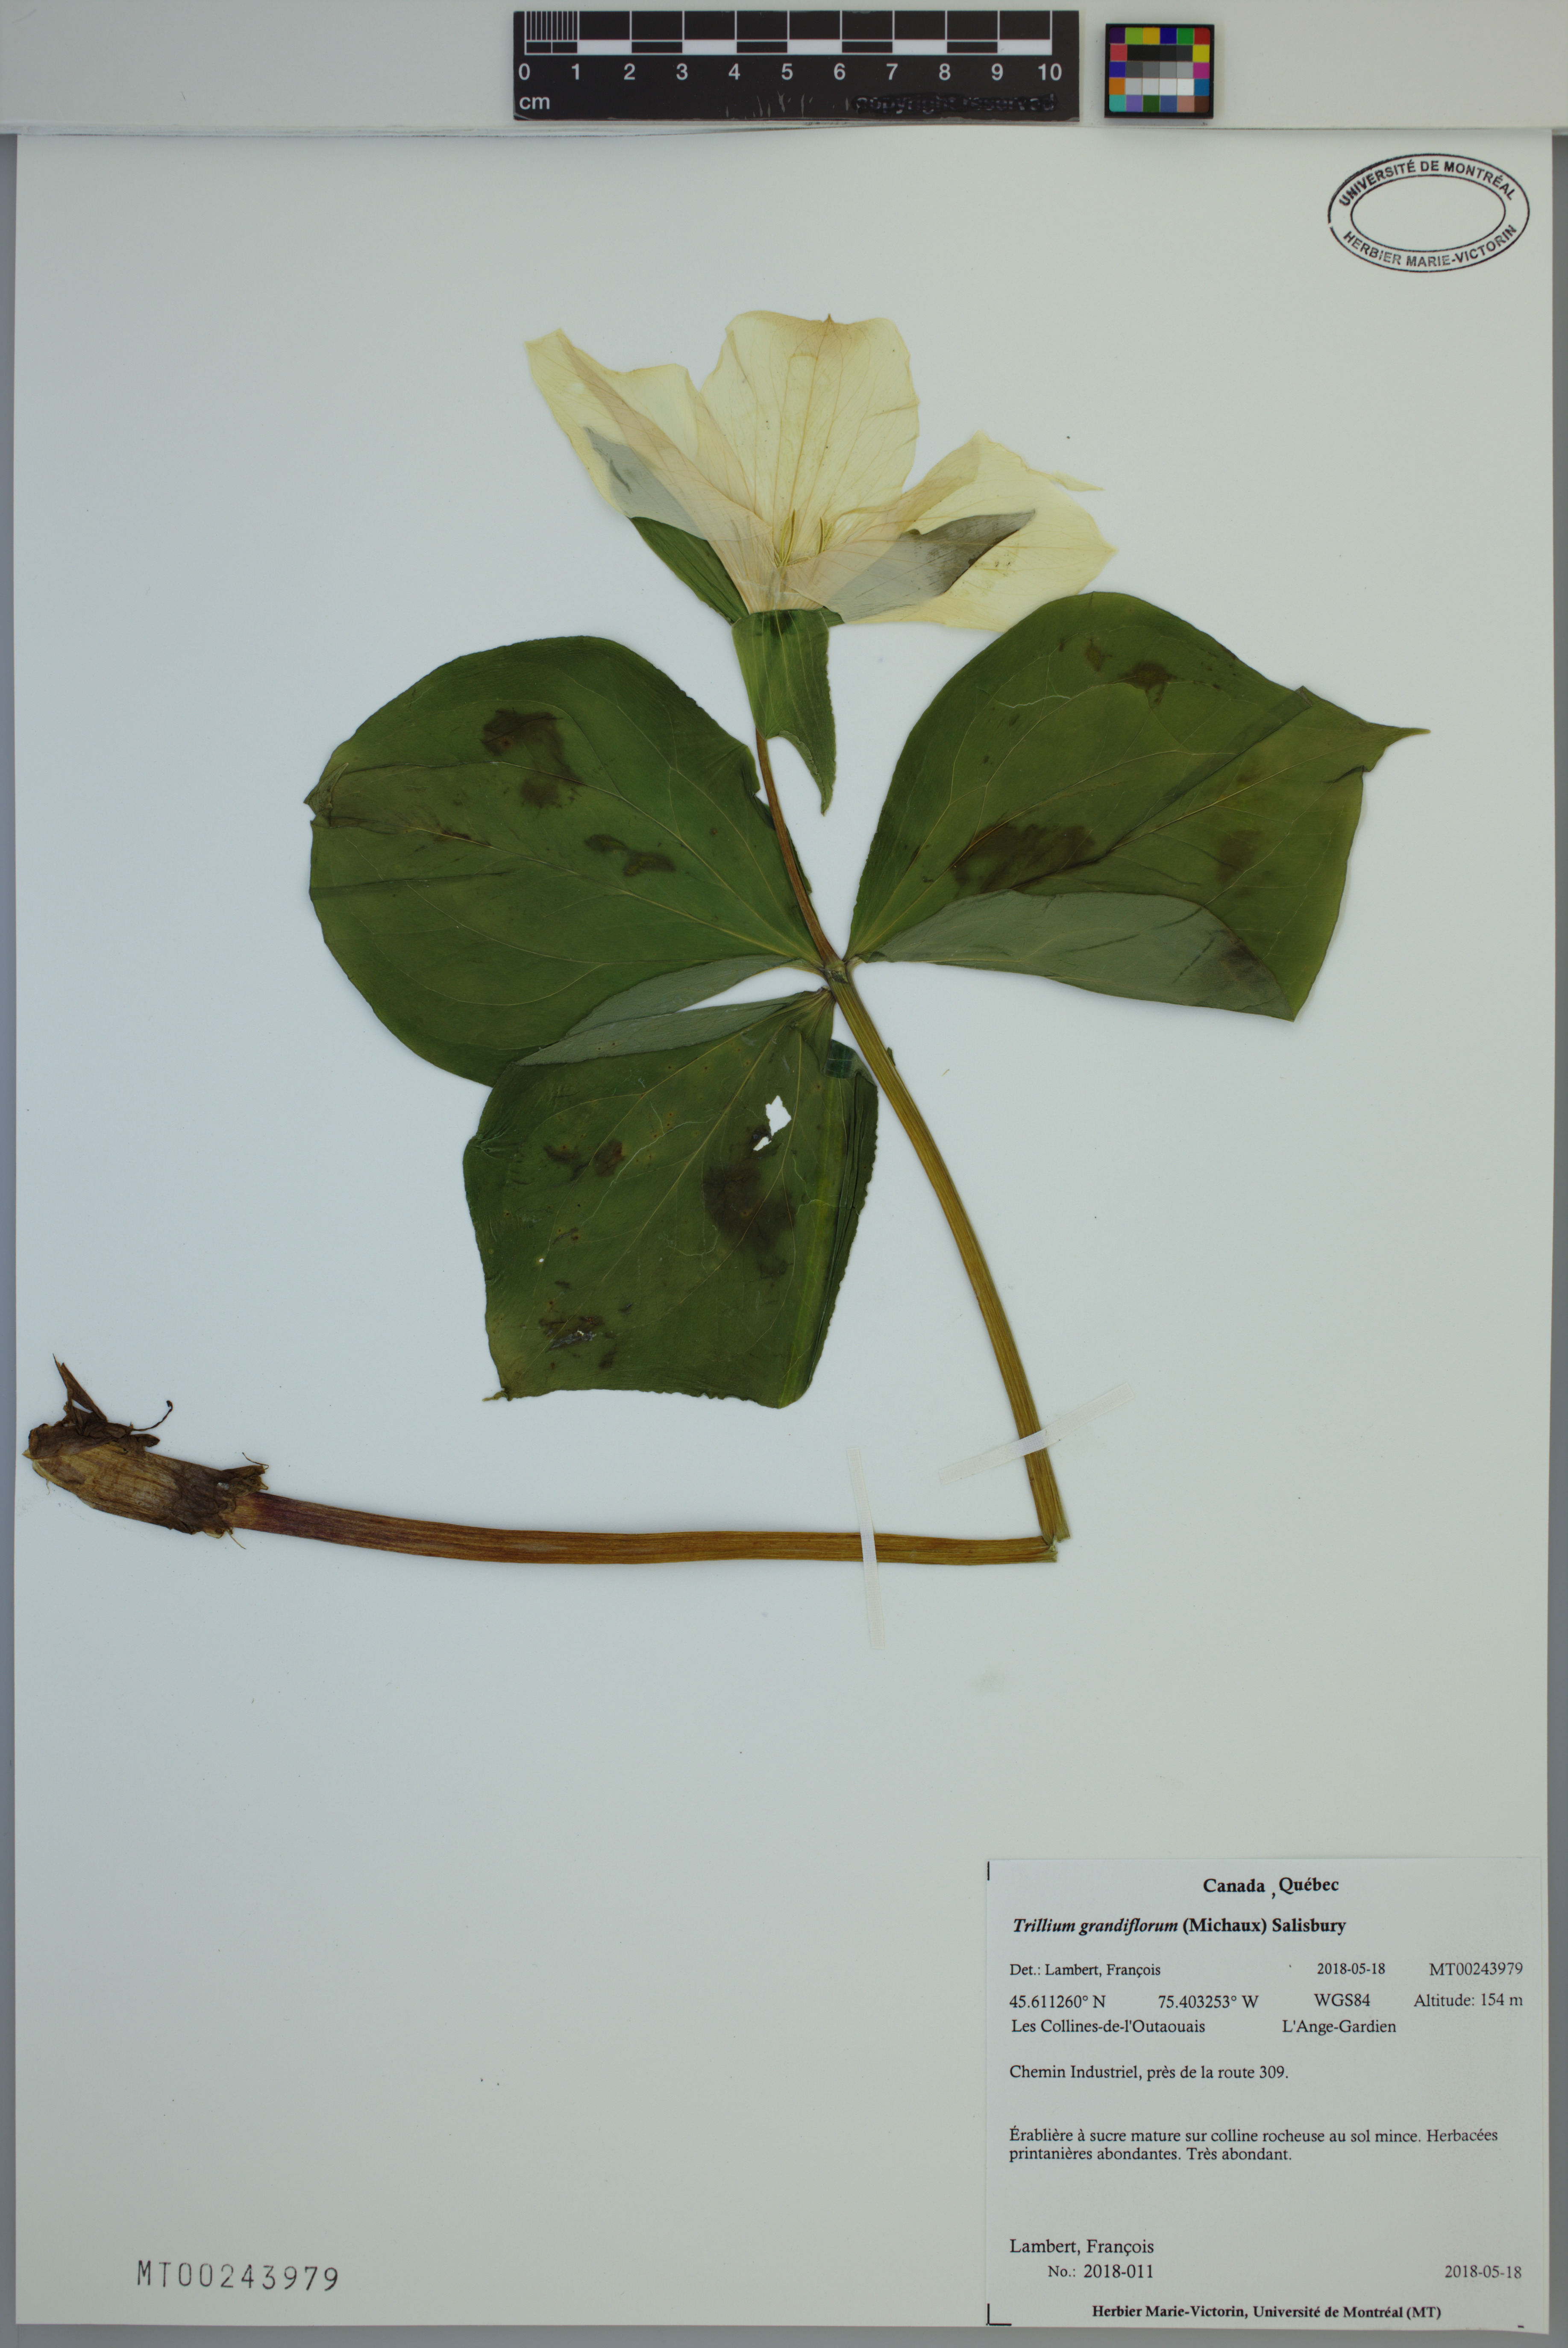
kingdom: Plantae
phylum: Tracheophyta
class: Liliopsida
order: Liliales
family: Melanthiaceae
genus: Trillium
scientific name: Trillium grandiflorum
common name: Great white trillium
